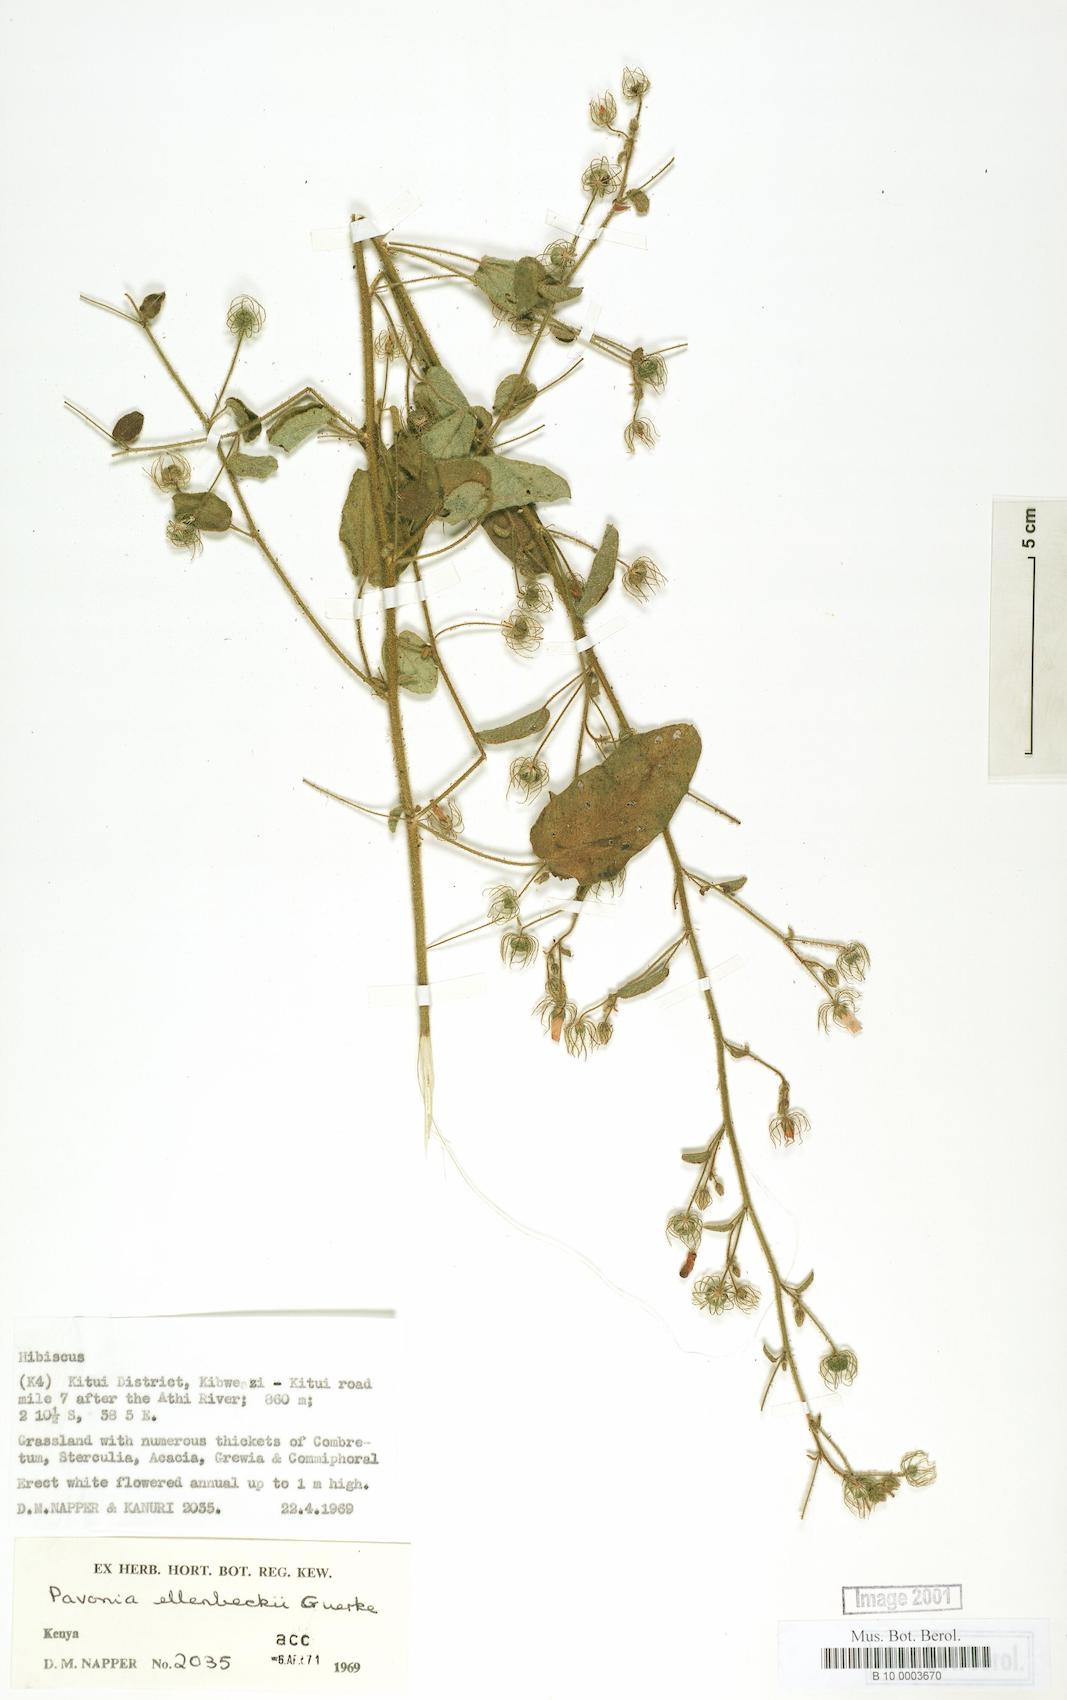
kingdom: Plantae
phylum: Tracheophyta
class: Magnoliopsida
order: Malvales
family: Malvaceae
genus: Pavonia
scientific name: Pavonia ellenbeckii
